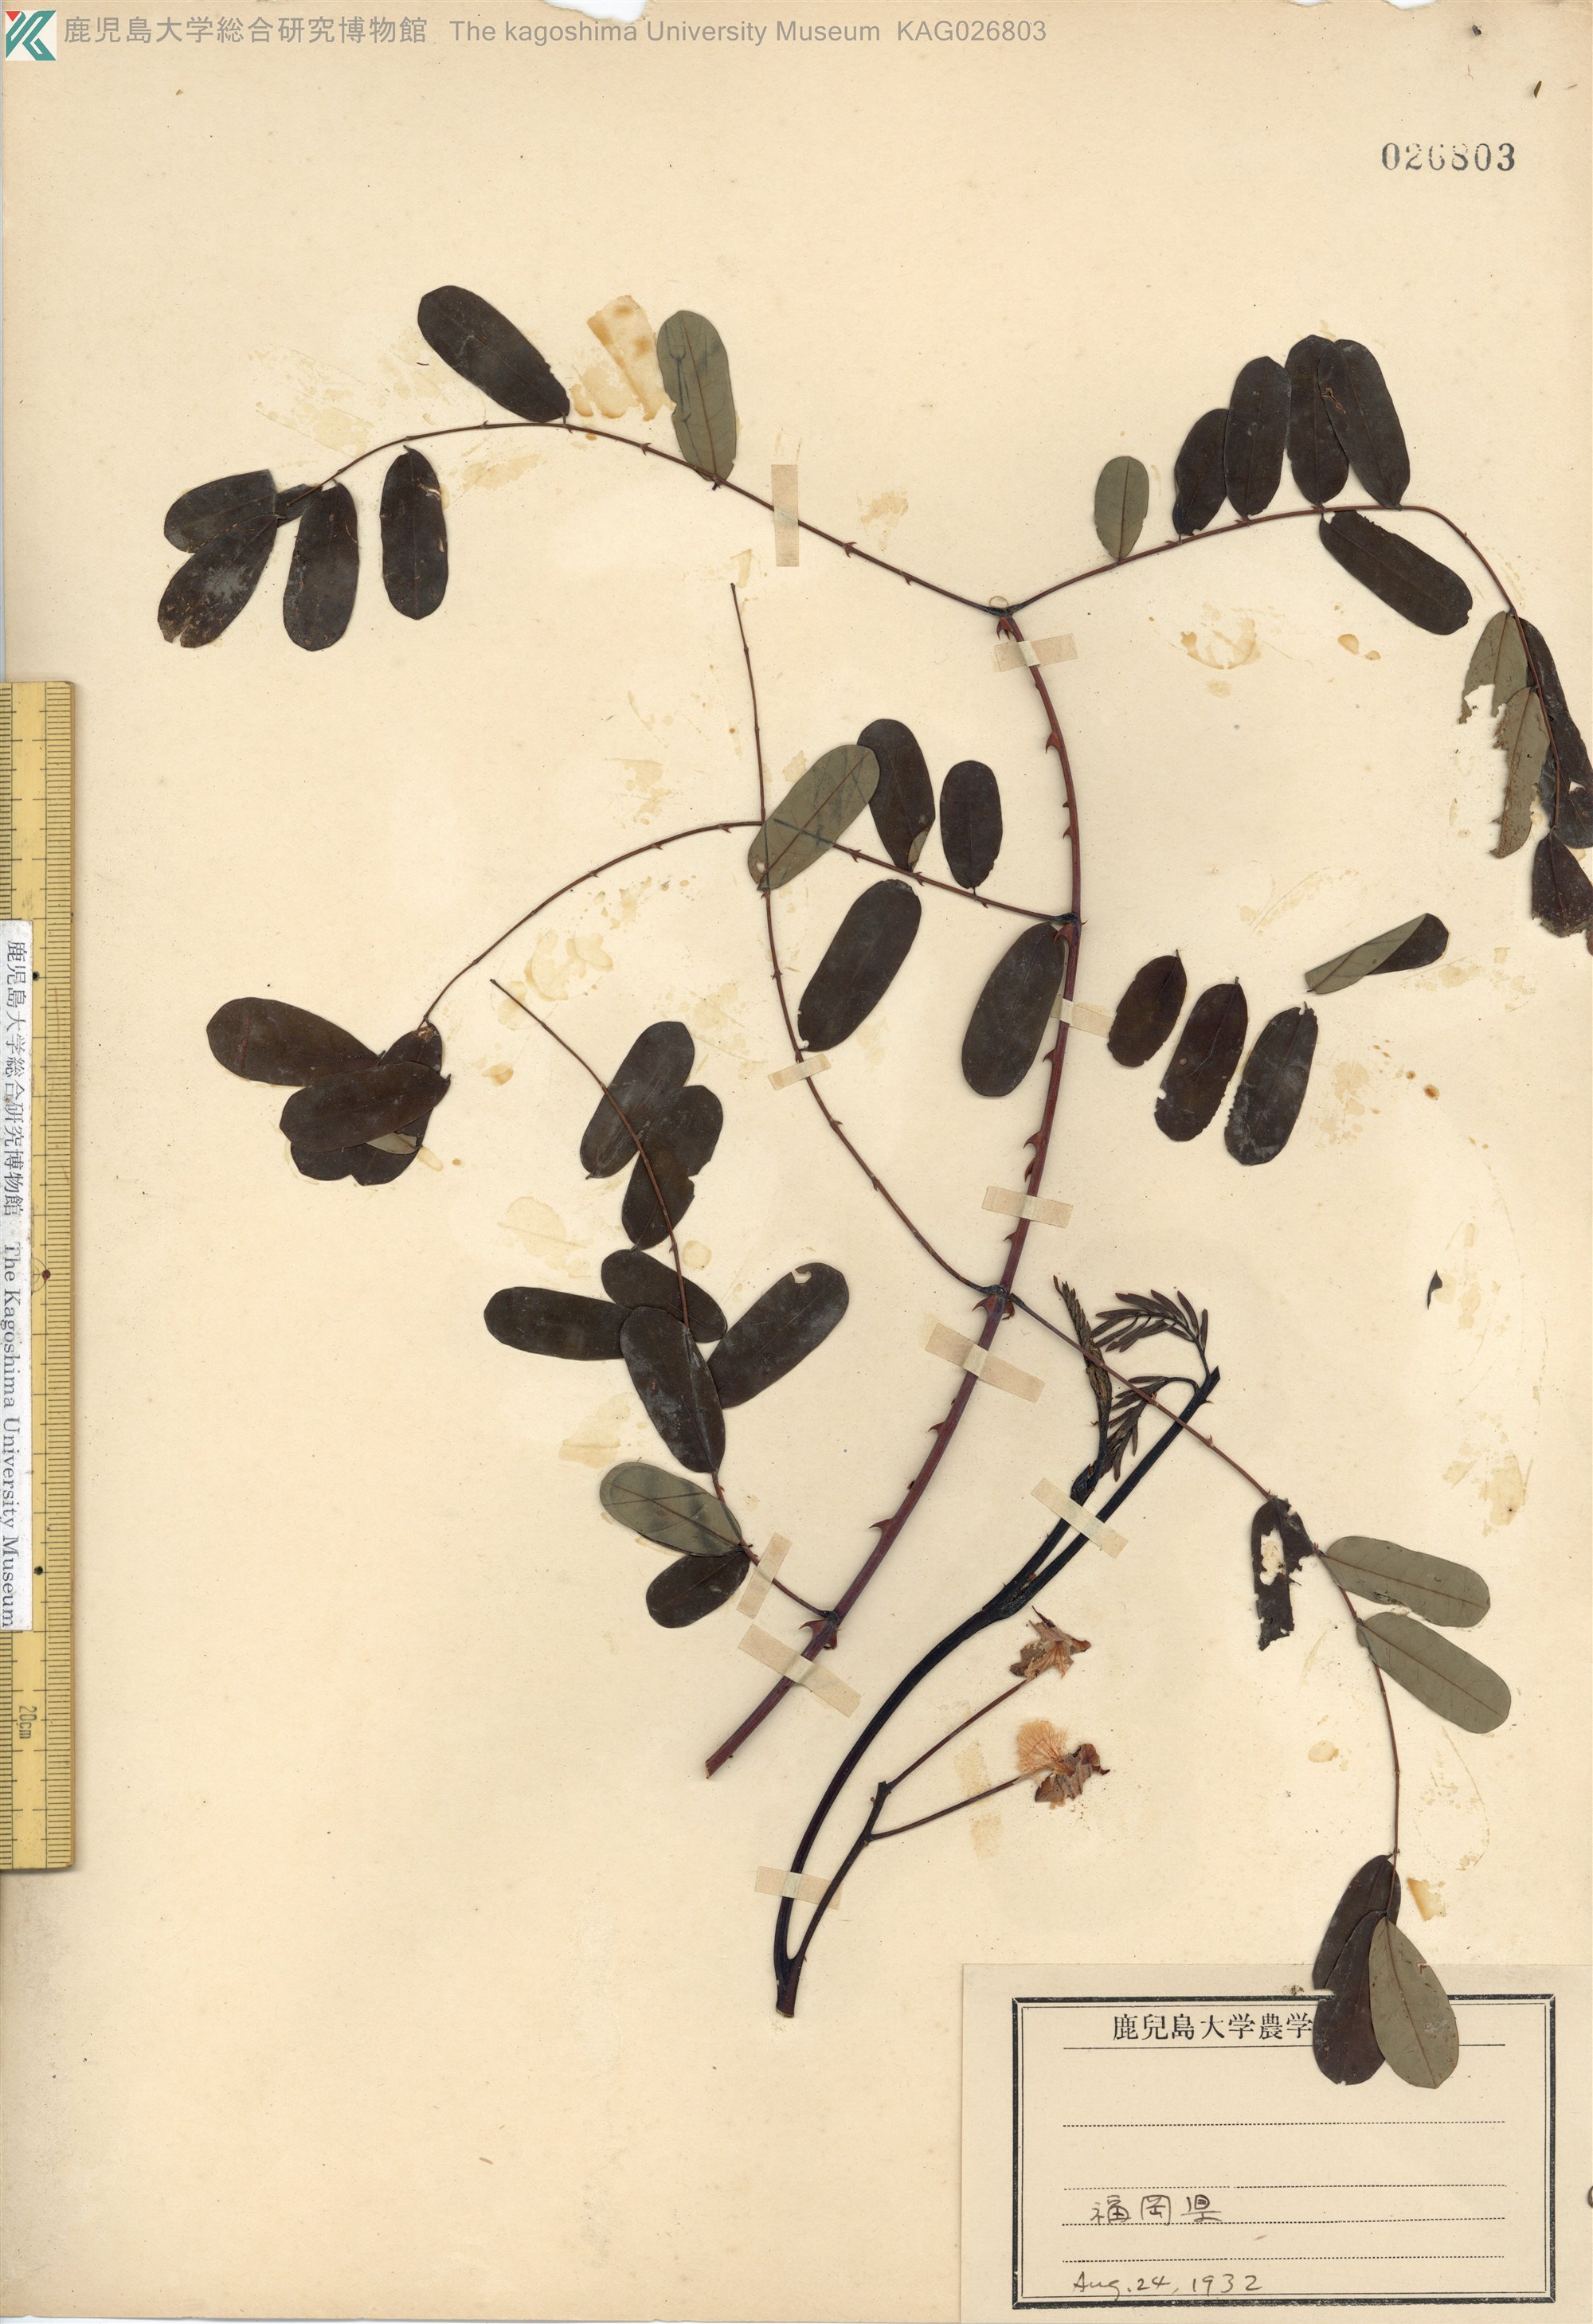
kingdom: Plantae
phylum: Tracheophyta
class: Magnoliopsida
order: Fabales
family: Fabaceae
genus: Biancaea
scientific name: Biancaea decapetala
